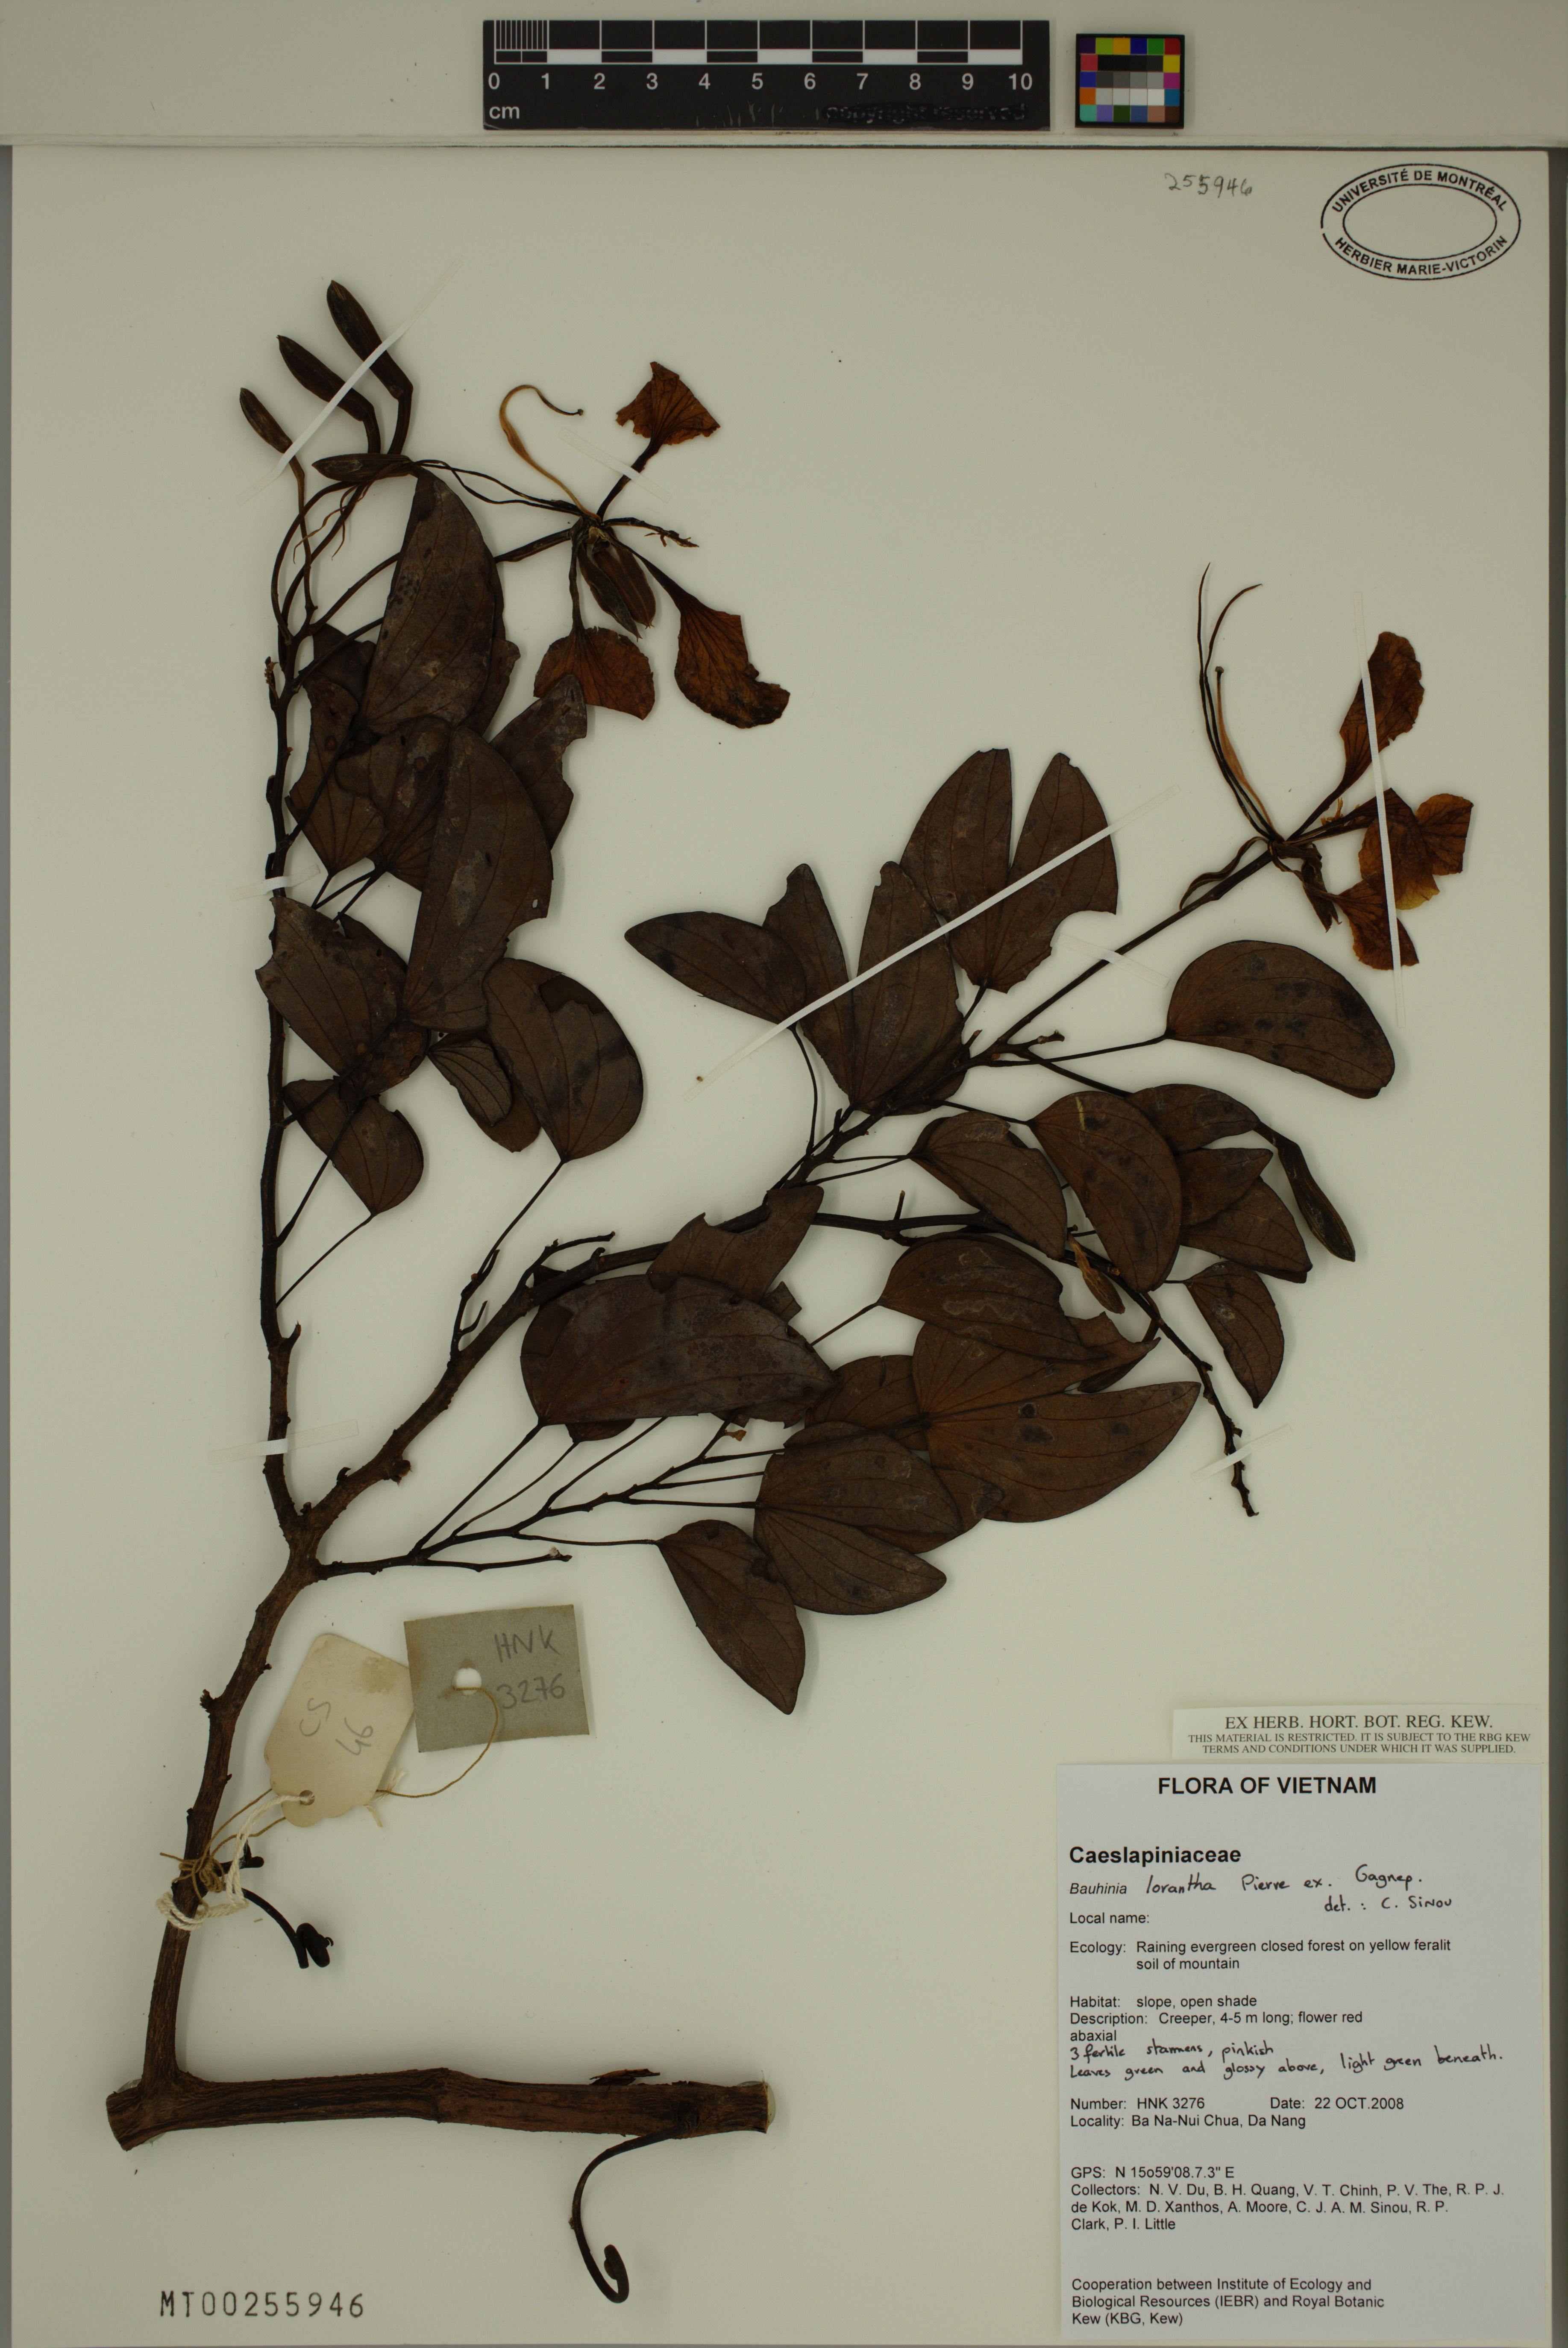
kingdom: Plantae
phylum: Tracheophyta
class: Magnoliopsida
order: Fabales
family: Fabaceae
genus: Bauhinia
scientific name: Bauhinia lorantha
